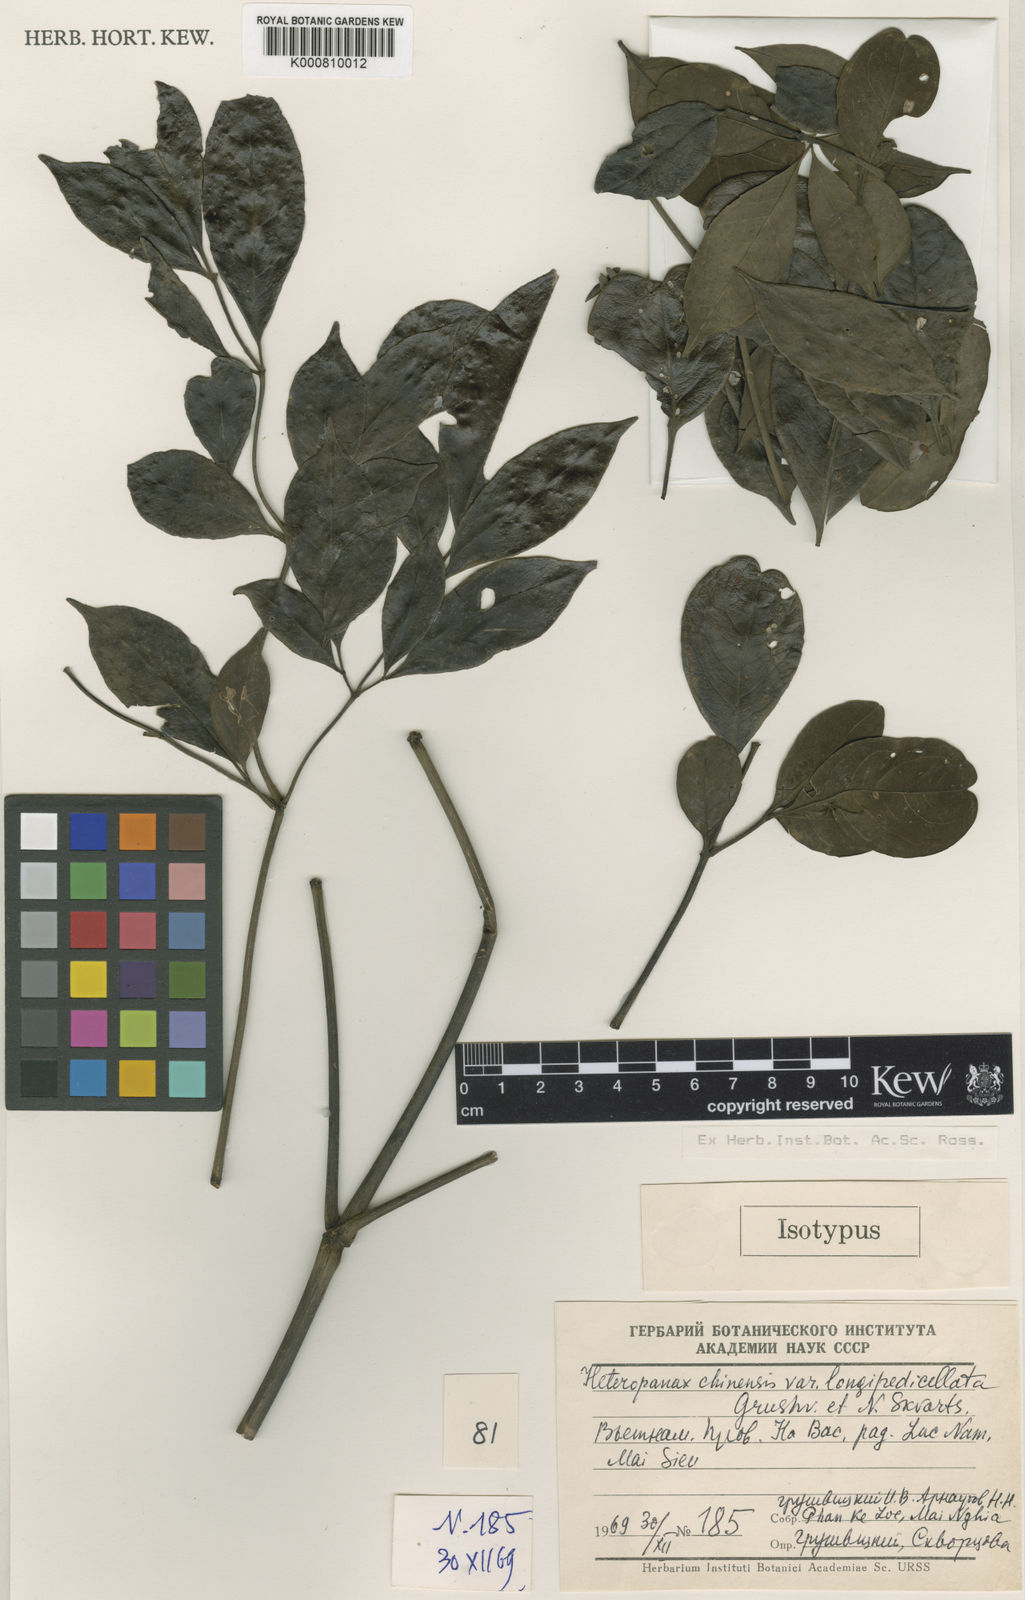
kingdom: Plantae
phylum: Tracheophyta
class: Magnoliopsida
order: Apiales
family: Araliaceae
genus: Heteropanax
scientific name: Heteropanax chinensis
